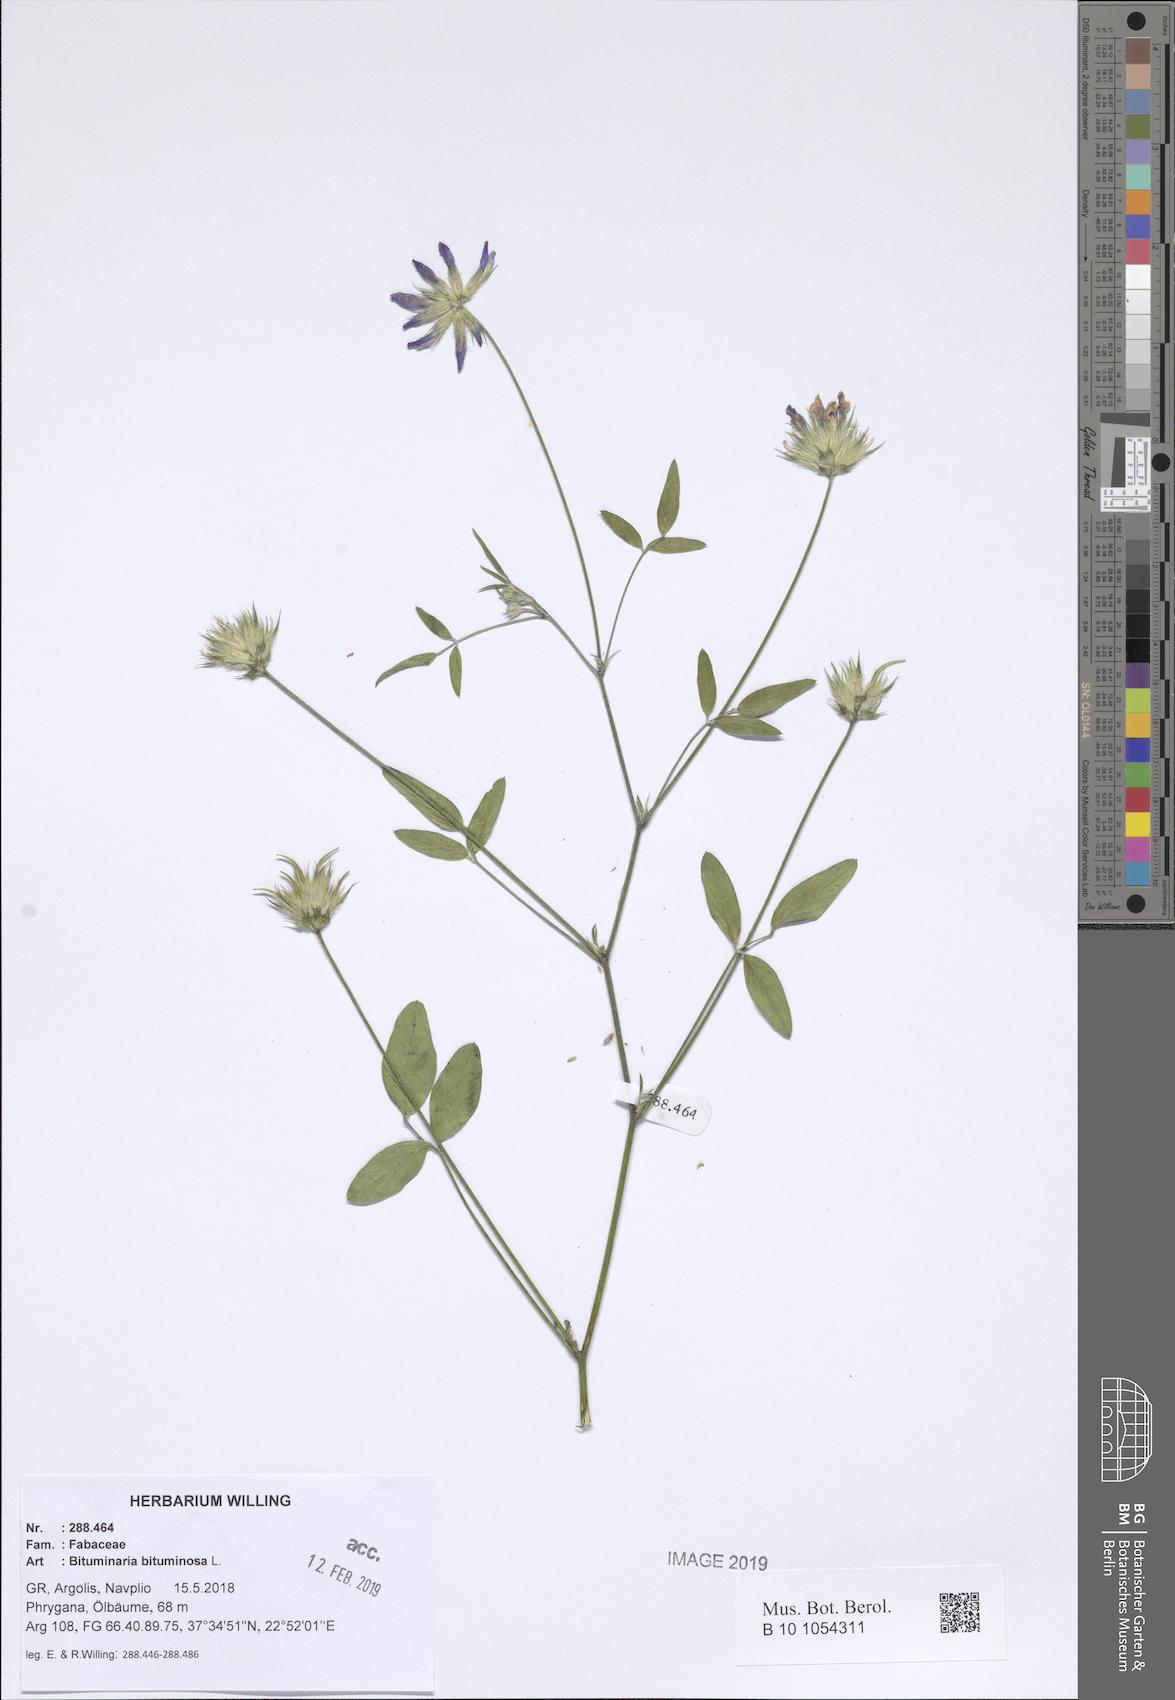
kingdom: Plantae
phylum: Tracheophyta
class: Magnoliopsida
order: Fabales
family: Fabaceae
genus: Bituminaria
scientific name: Bituminaria bituminosa
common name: Arabian pea
